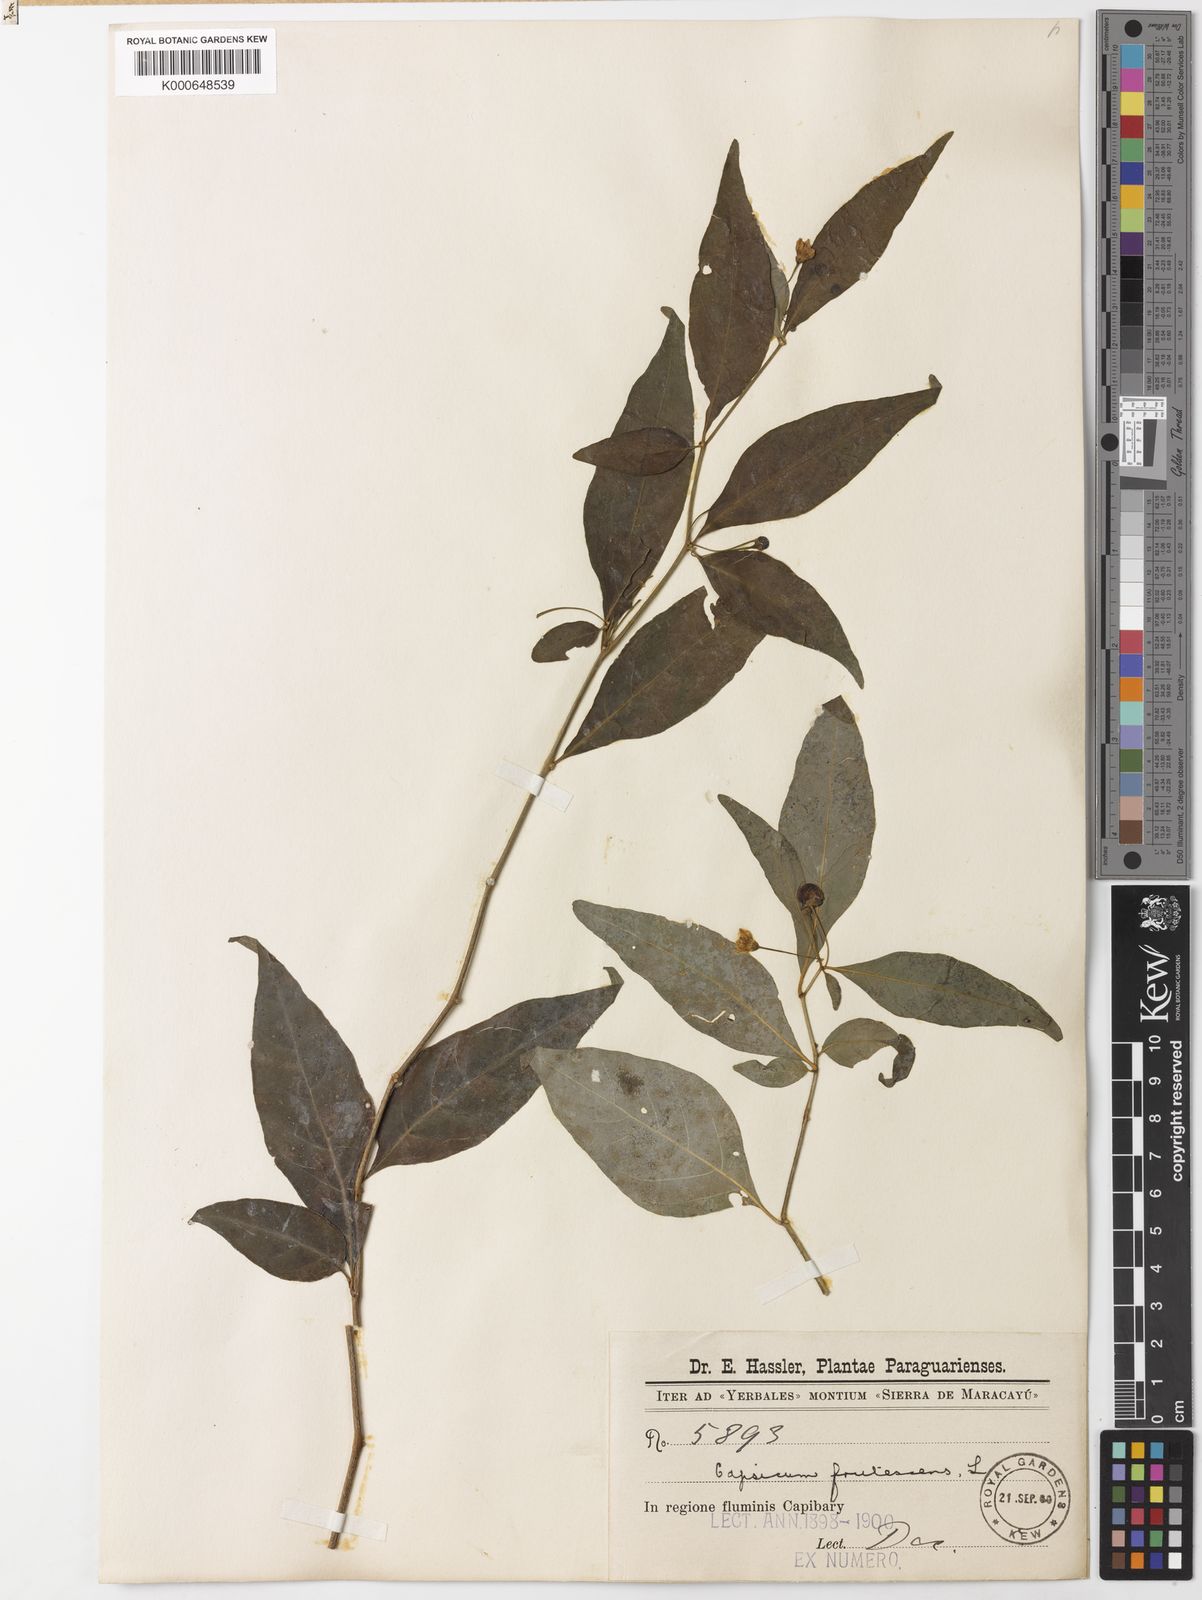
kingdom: Plantae
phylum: Tracheophyta
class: Magnoliopsida
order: Solanales
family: Solanaceae
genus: Capsicum
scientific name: Capsicum flexuosum
